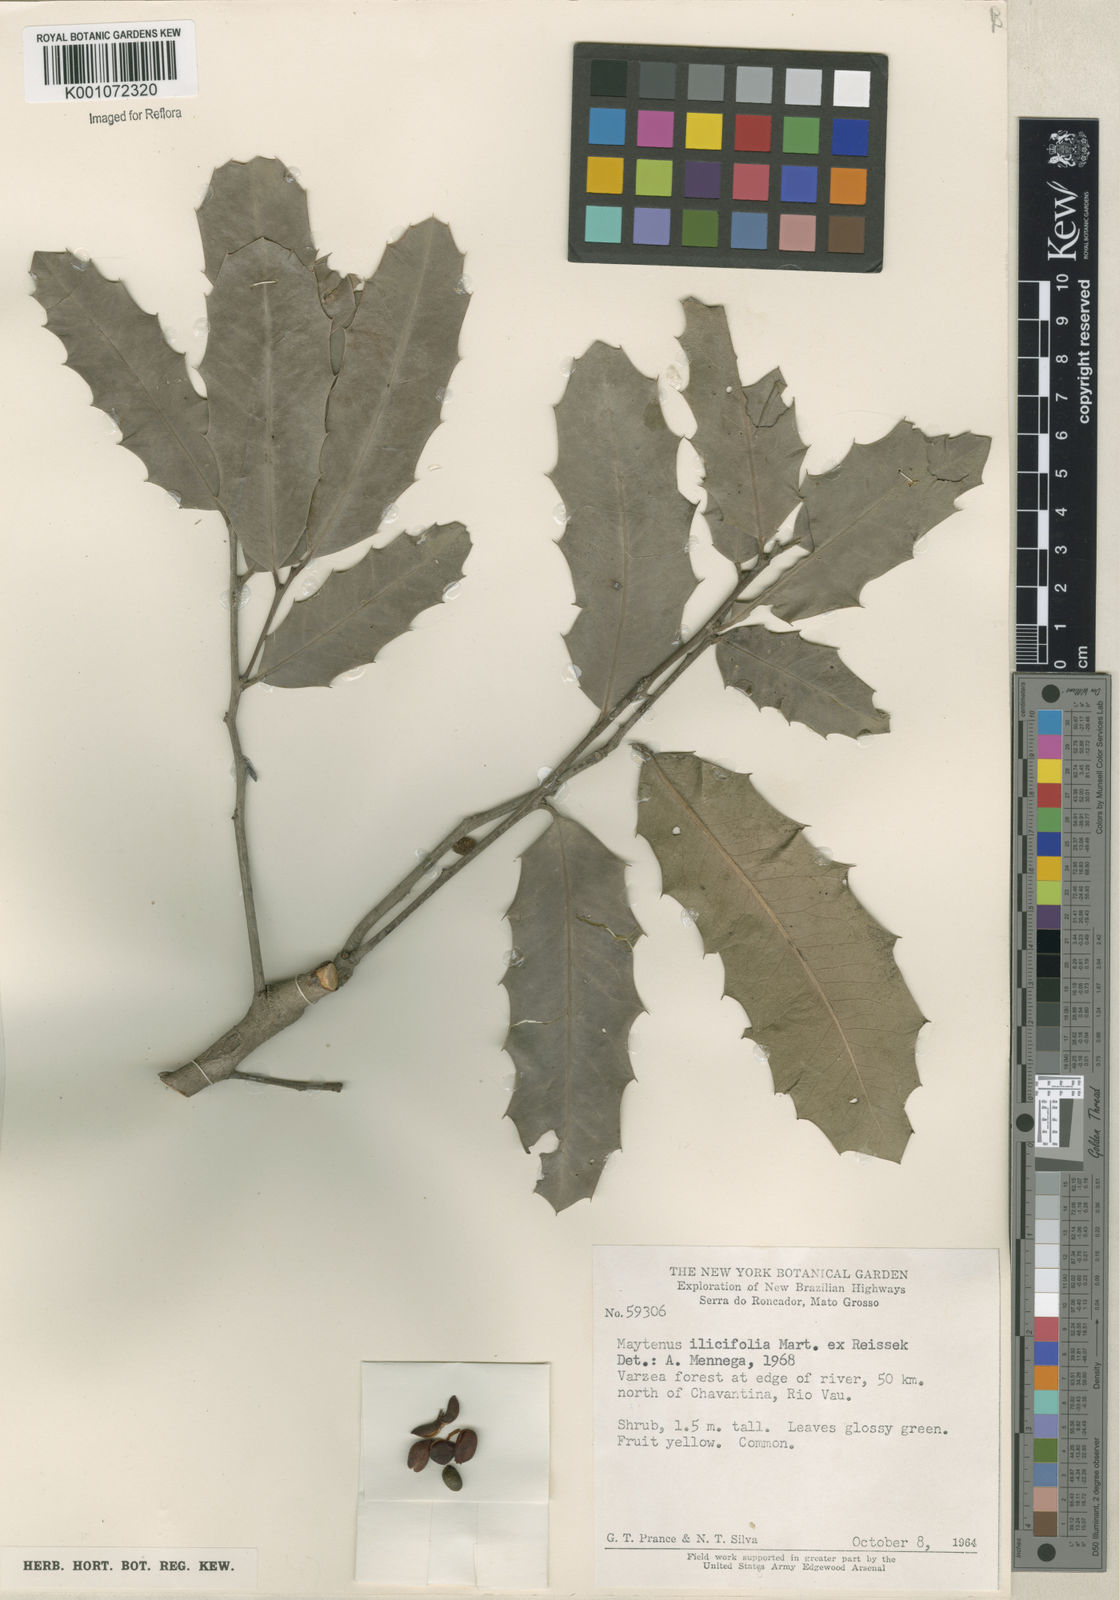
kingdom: Plantae
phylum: Tracheophyta
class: Magnoliopsida
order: Celastrales
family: Celastraceae
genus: Monteverdia
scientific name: Monteverdia ilicifolia
